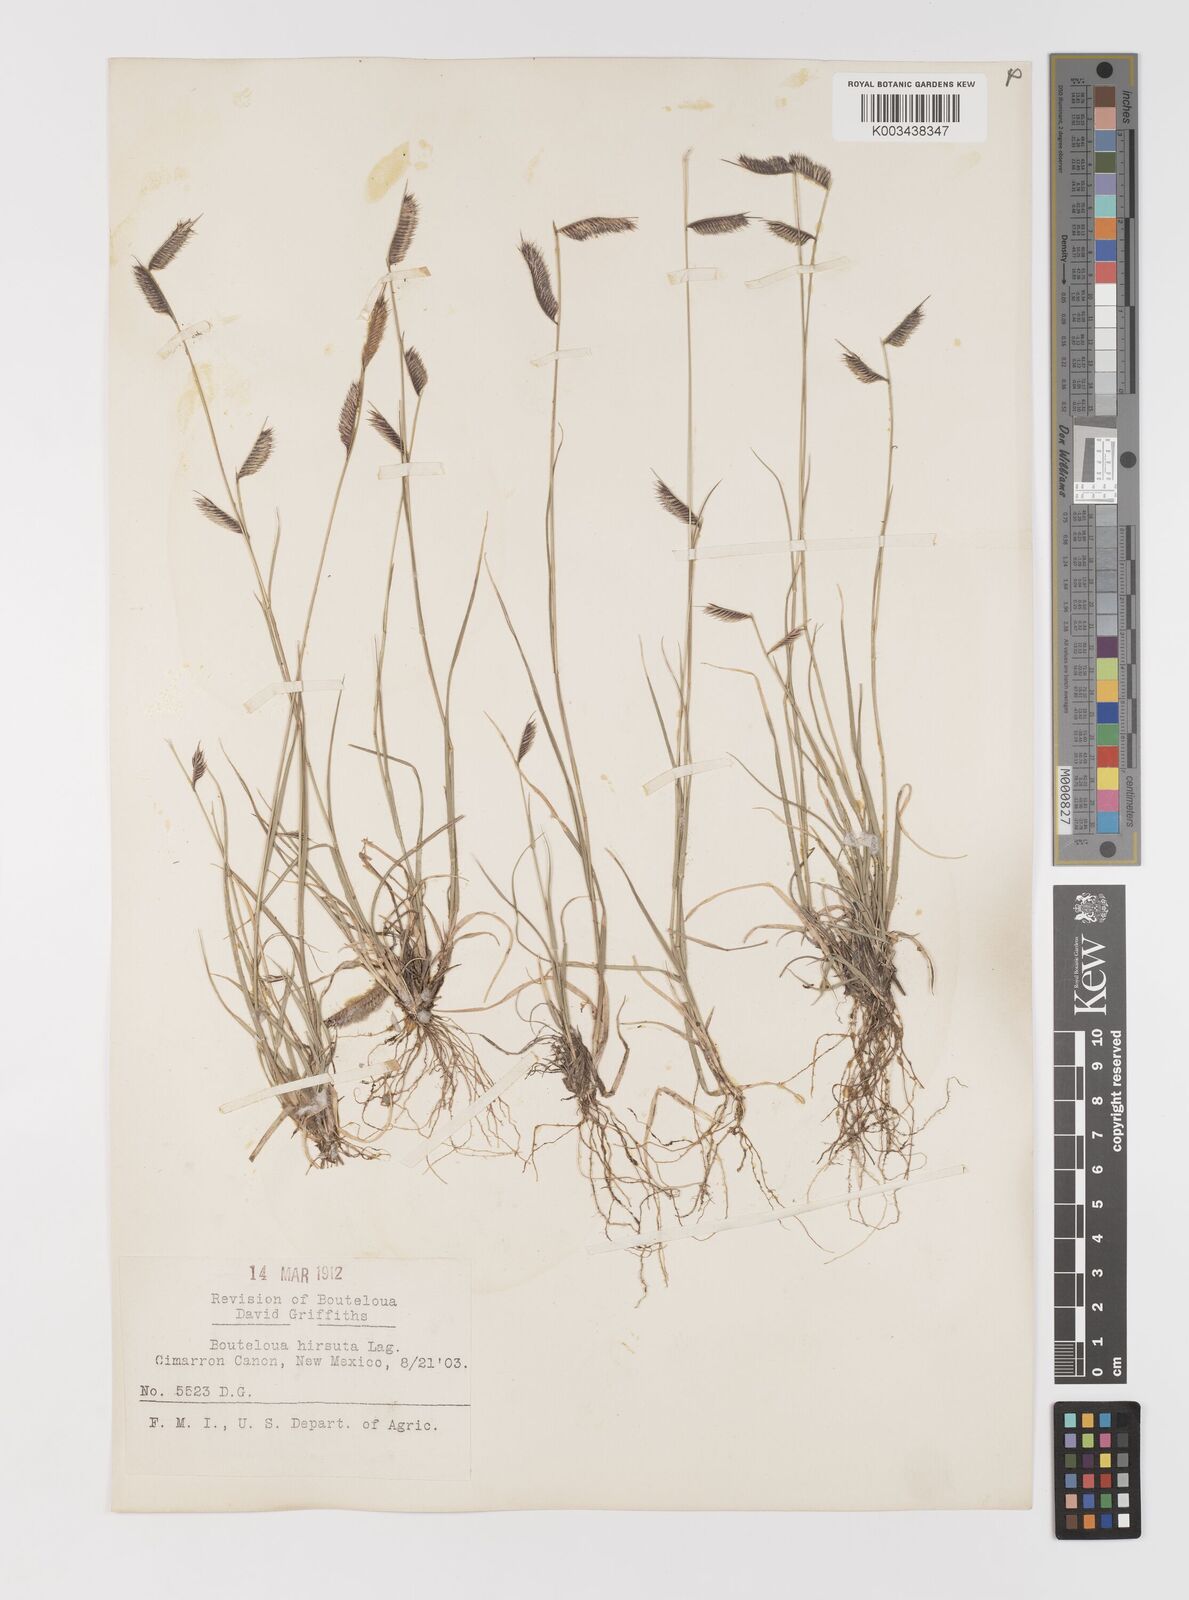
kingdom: Plantae
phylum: Tracheophyta
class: Liliopsida
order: Poales
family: Poaceae
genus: Bouteloua
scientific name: Bouteloua hirsuta
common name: Hairy grama
